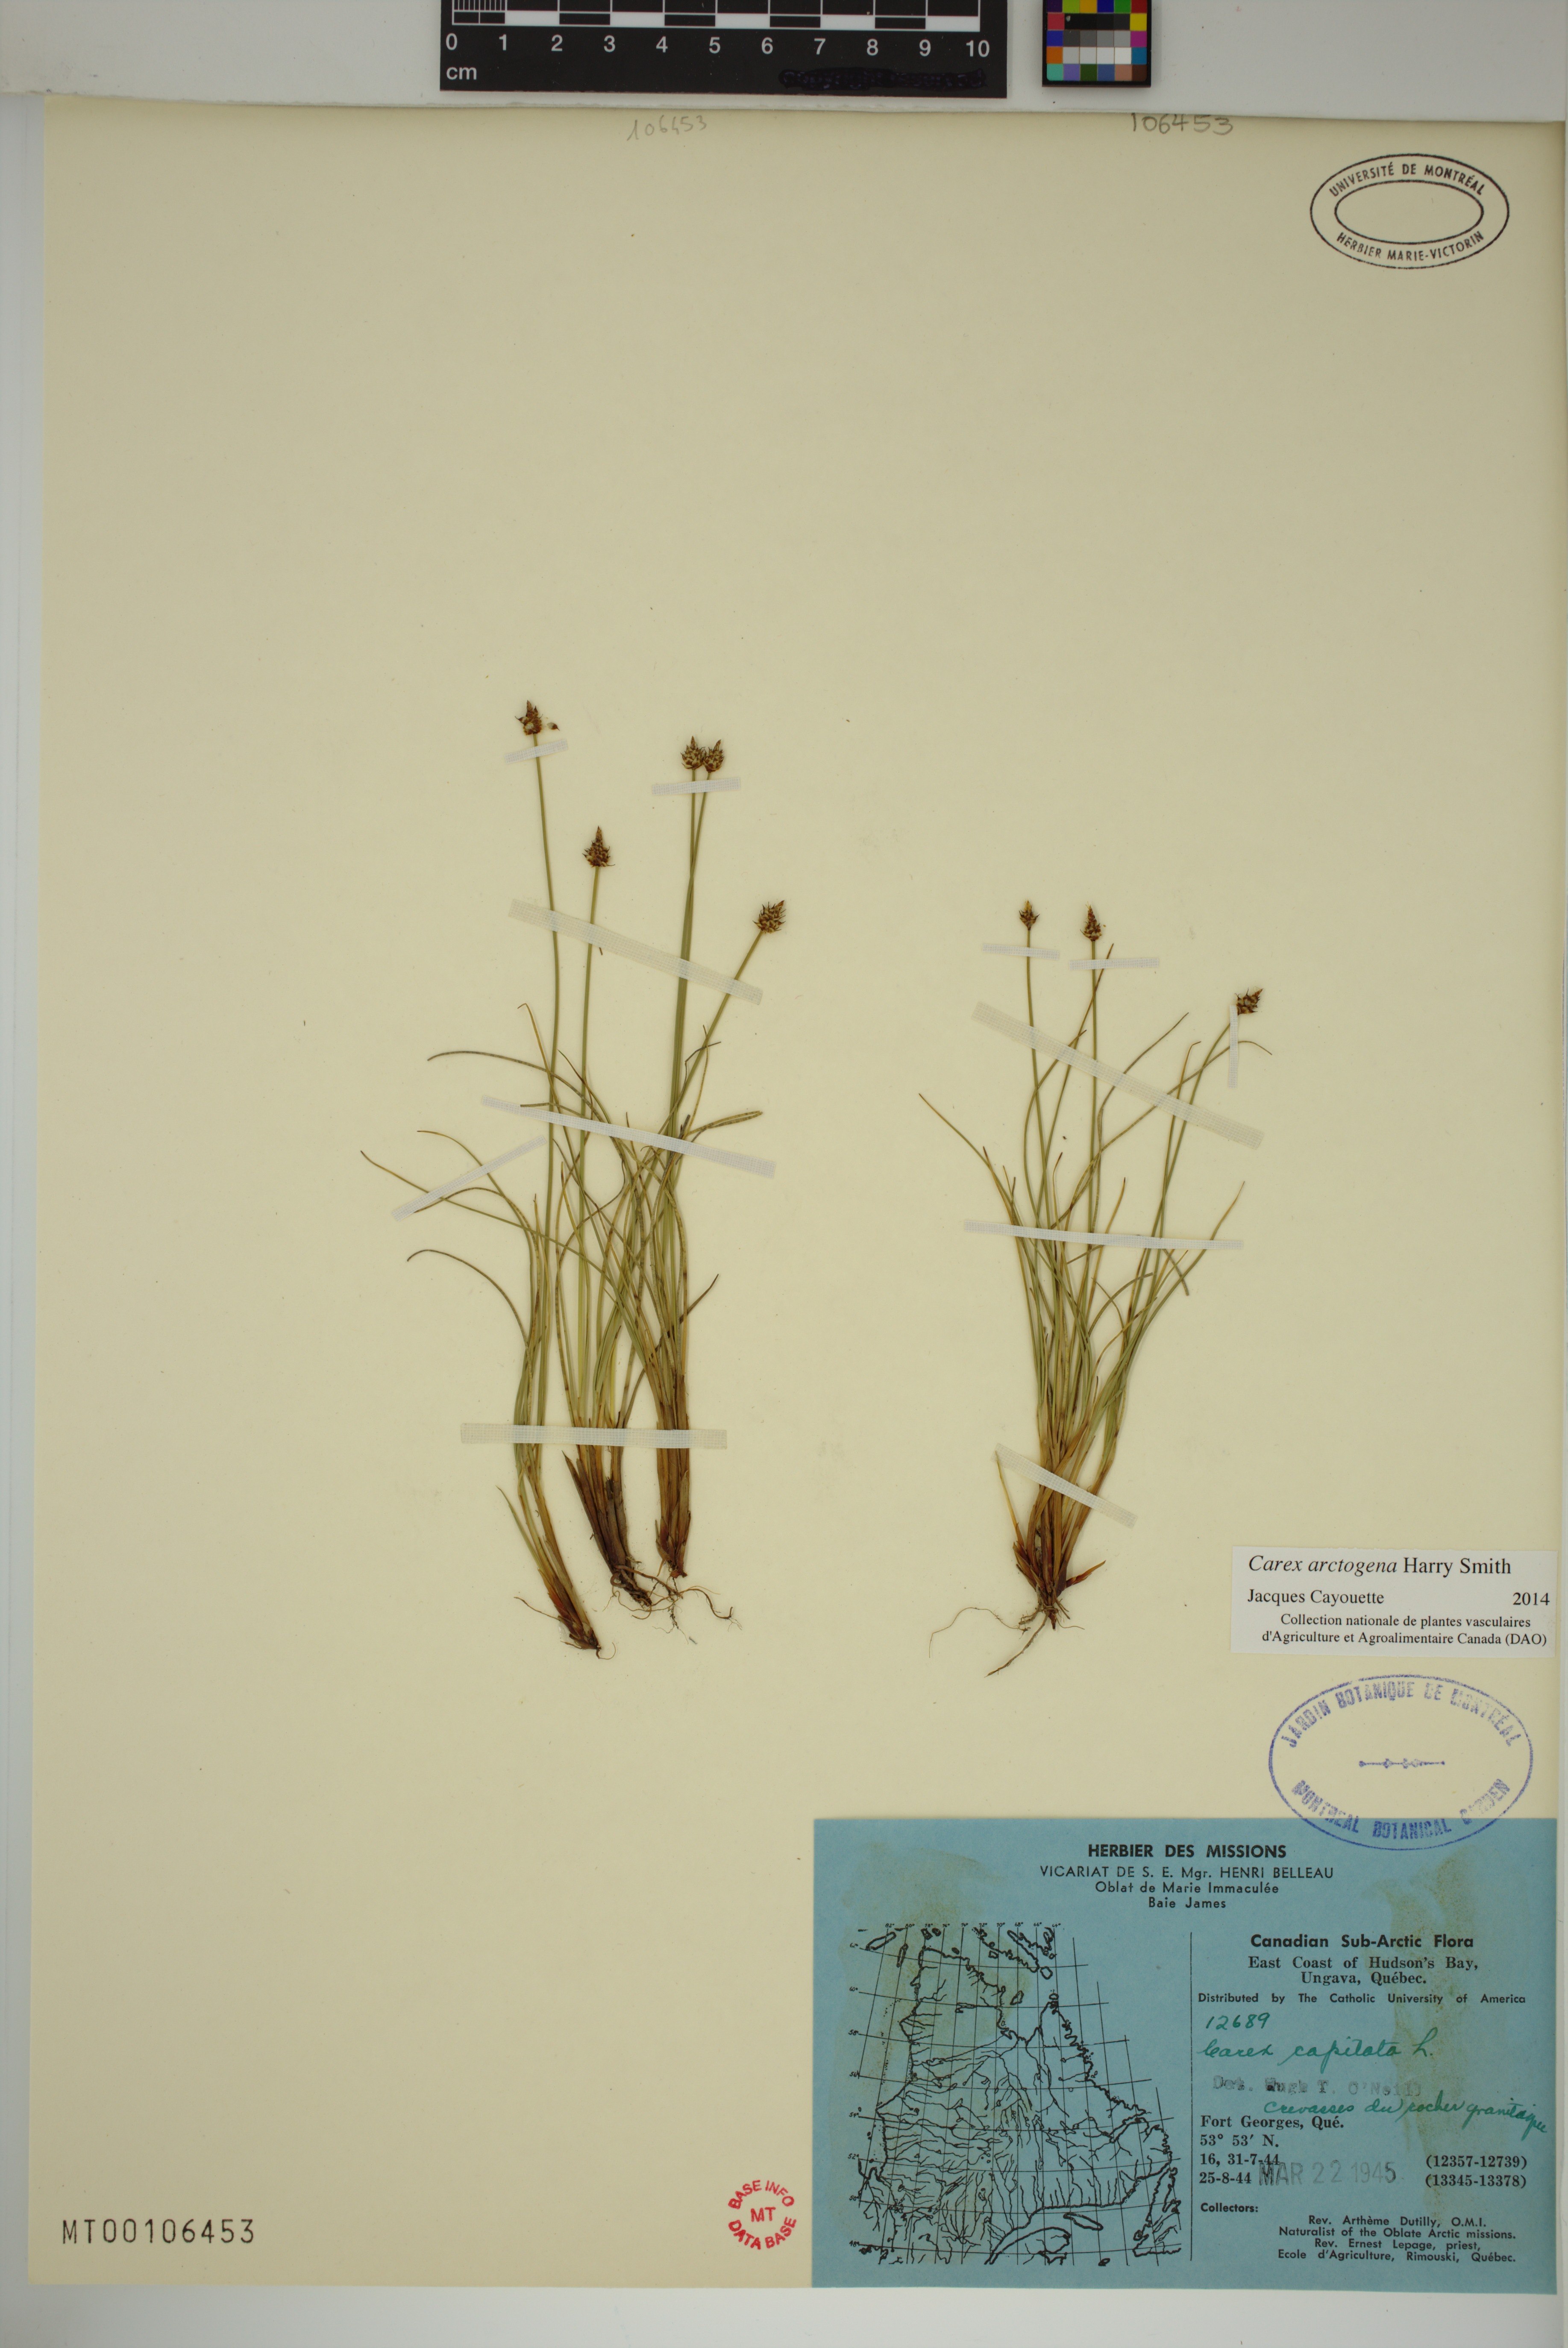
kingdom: Plantae
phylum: Tracheophyta
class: Liliopsida
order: Poales
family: Cyperaceae
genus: Carex
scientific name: Carex arctogena
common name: Black sedge
